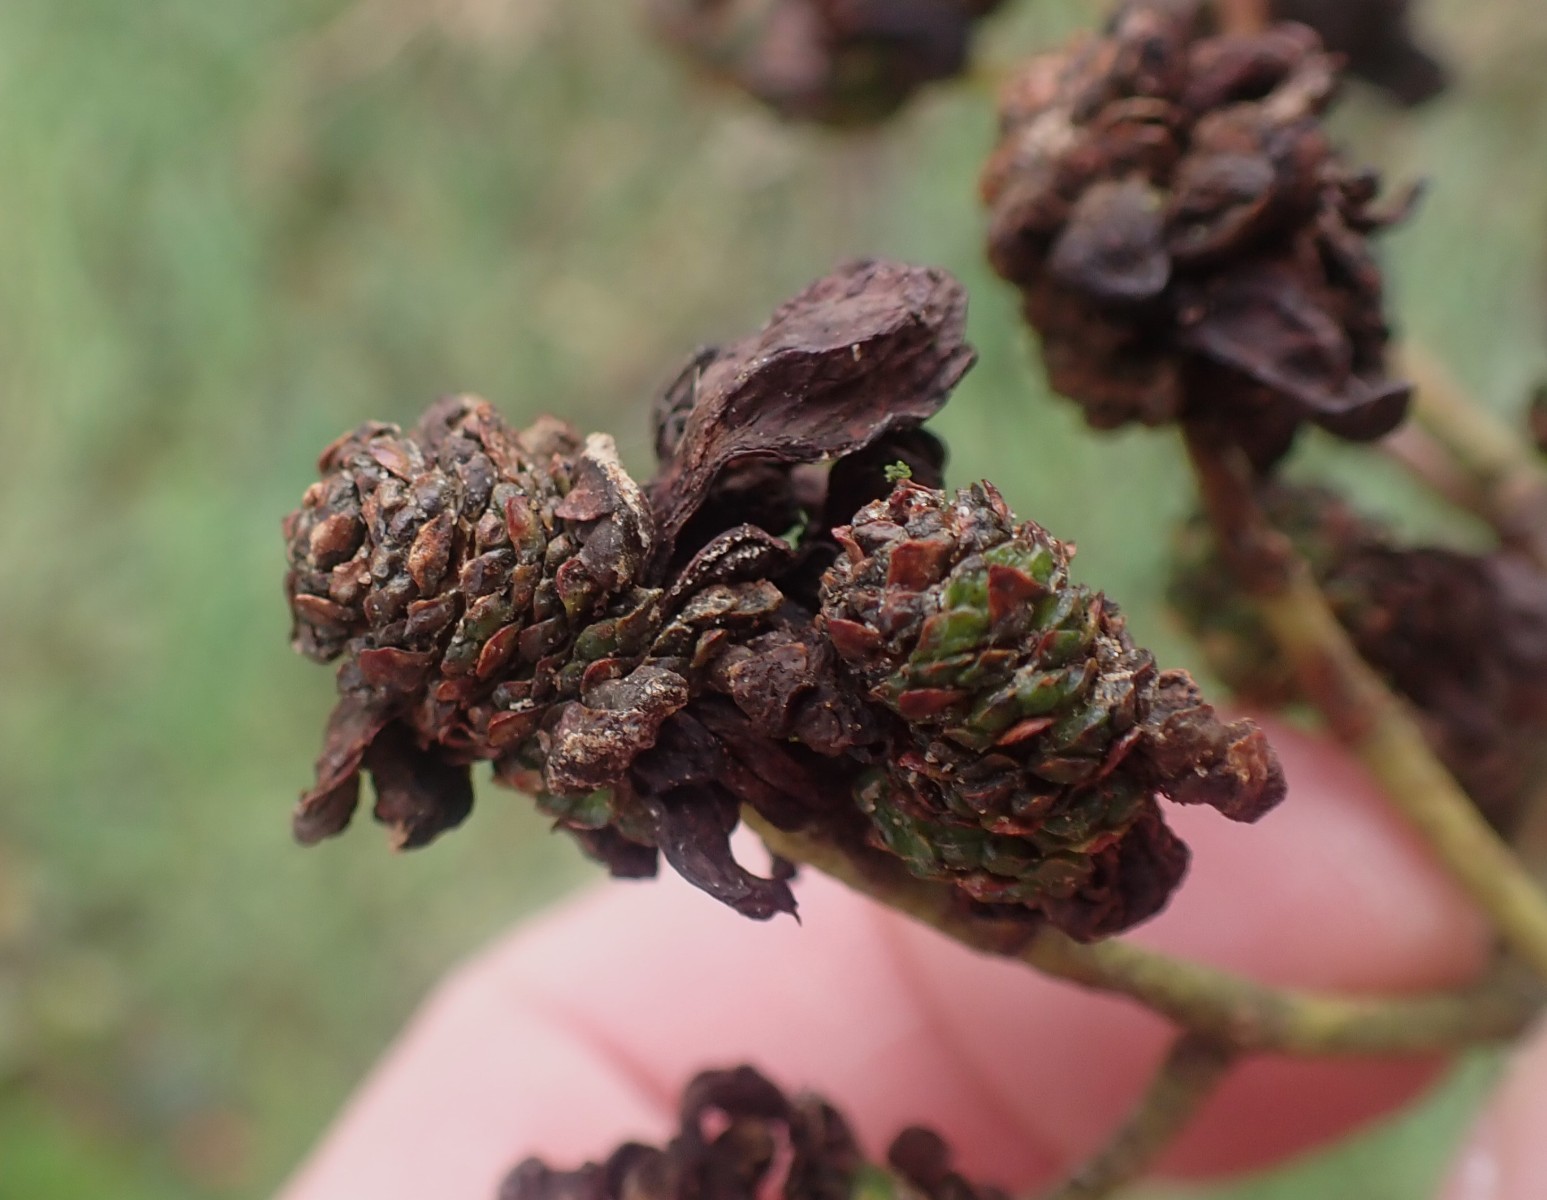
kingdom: Fungi
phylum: Ascomycota
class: Taphrinomycetes
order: Taphrinales
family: Taphrinaceae
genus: Taphrina
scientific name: Taphrina alni
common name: Alder tongue
